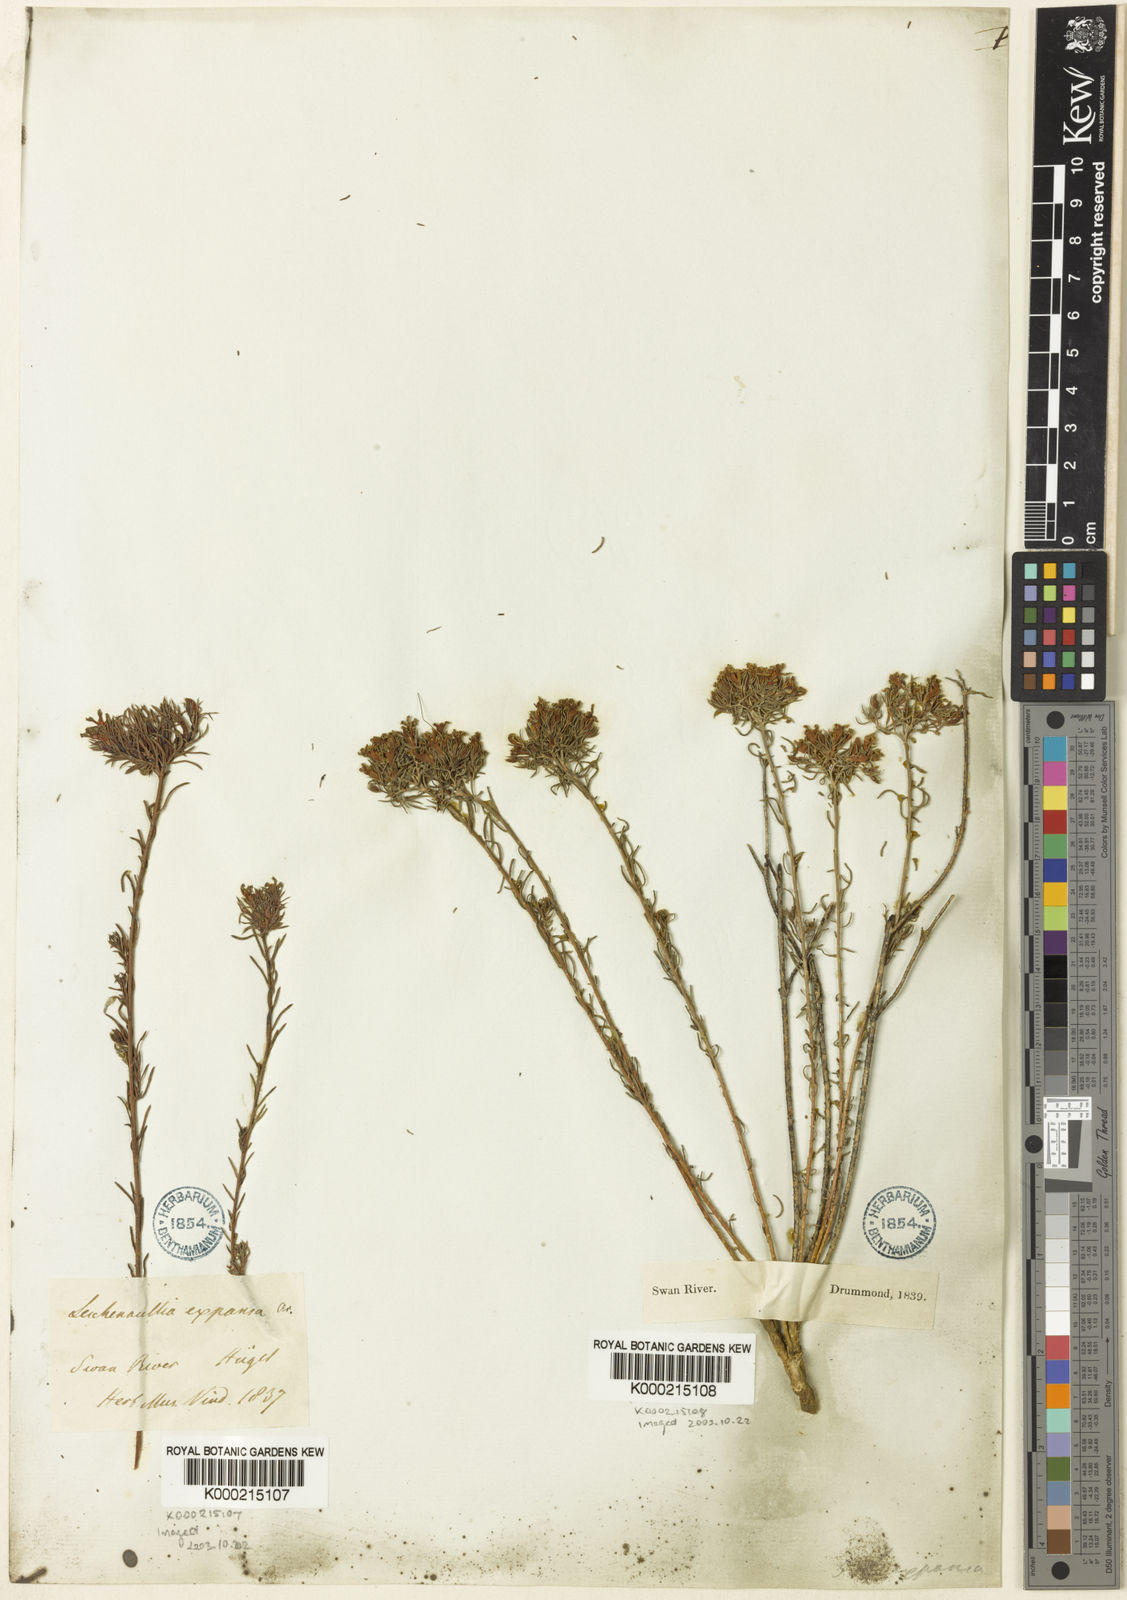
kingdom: Plantae
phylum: Tracheophyta
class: Magnoliopsida
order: Asterales
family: Goodeniaceae
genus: Leschenaultia
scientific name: Leschenaultia expansa
